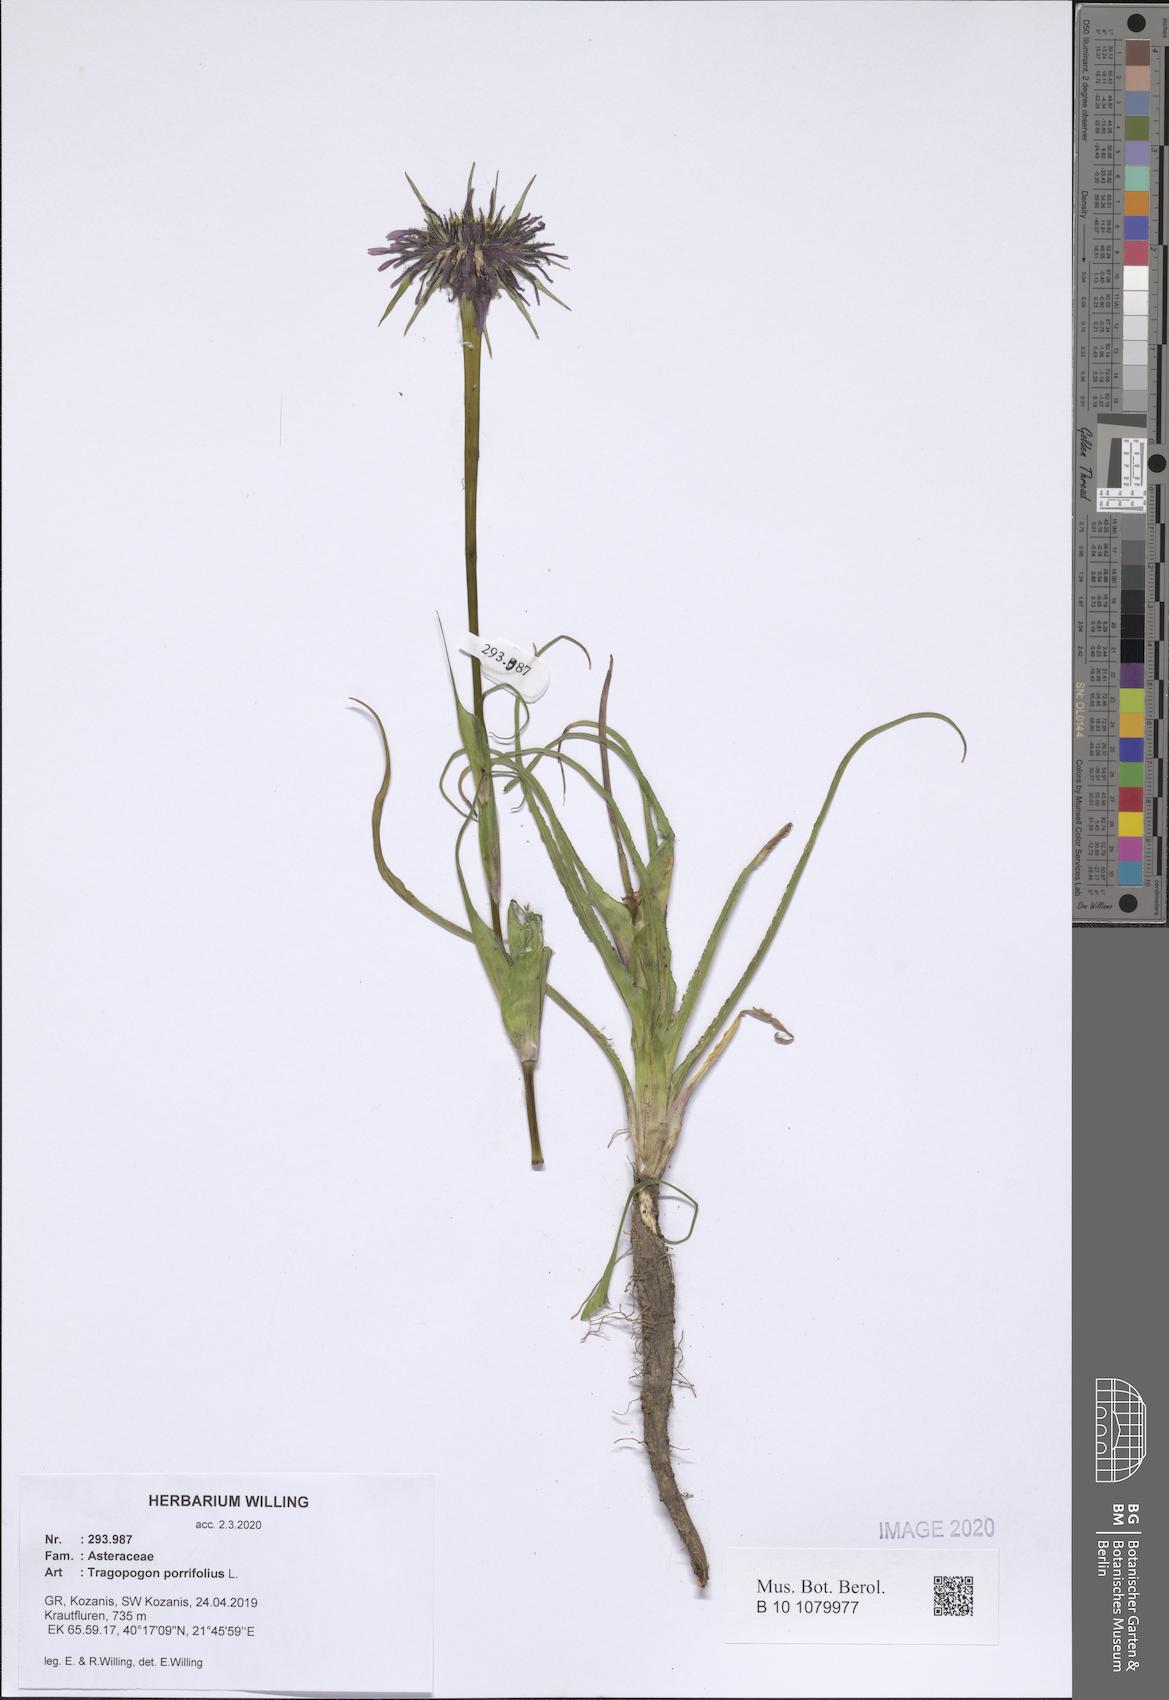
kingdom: Plantae
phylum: Tracheophyta
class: Magnoliopsida
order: Asterales
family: Asteraceae
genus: Tragopogon
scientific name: Tragopogon porrifolius
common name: Salsify
